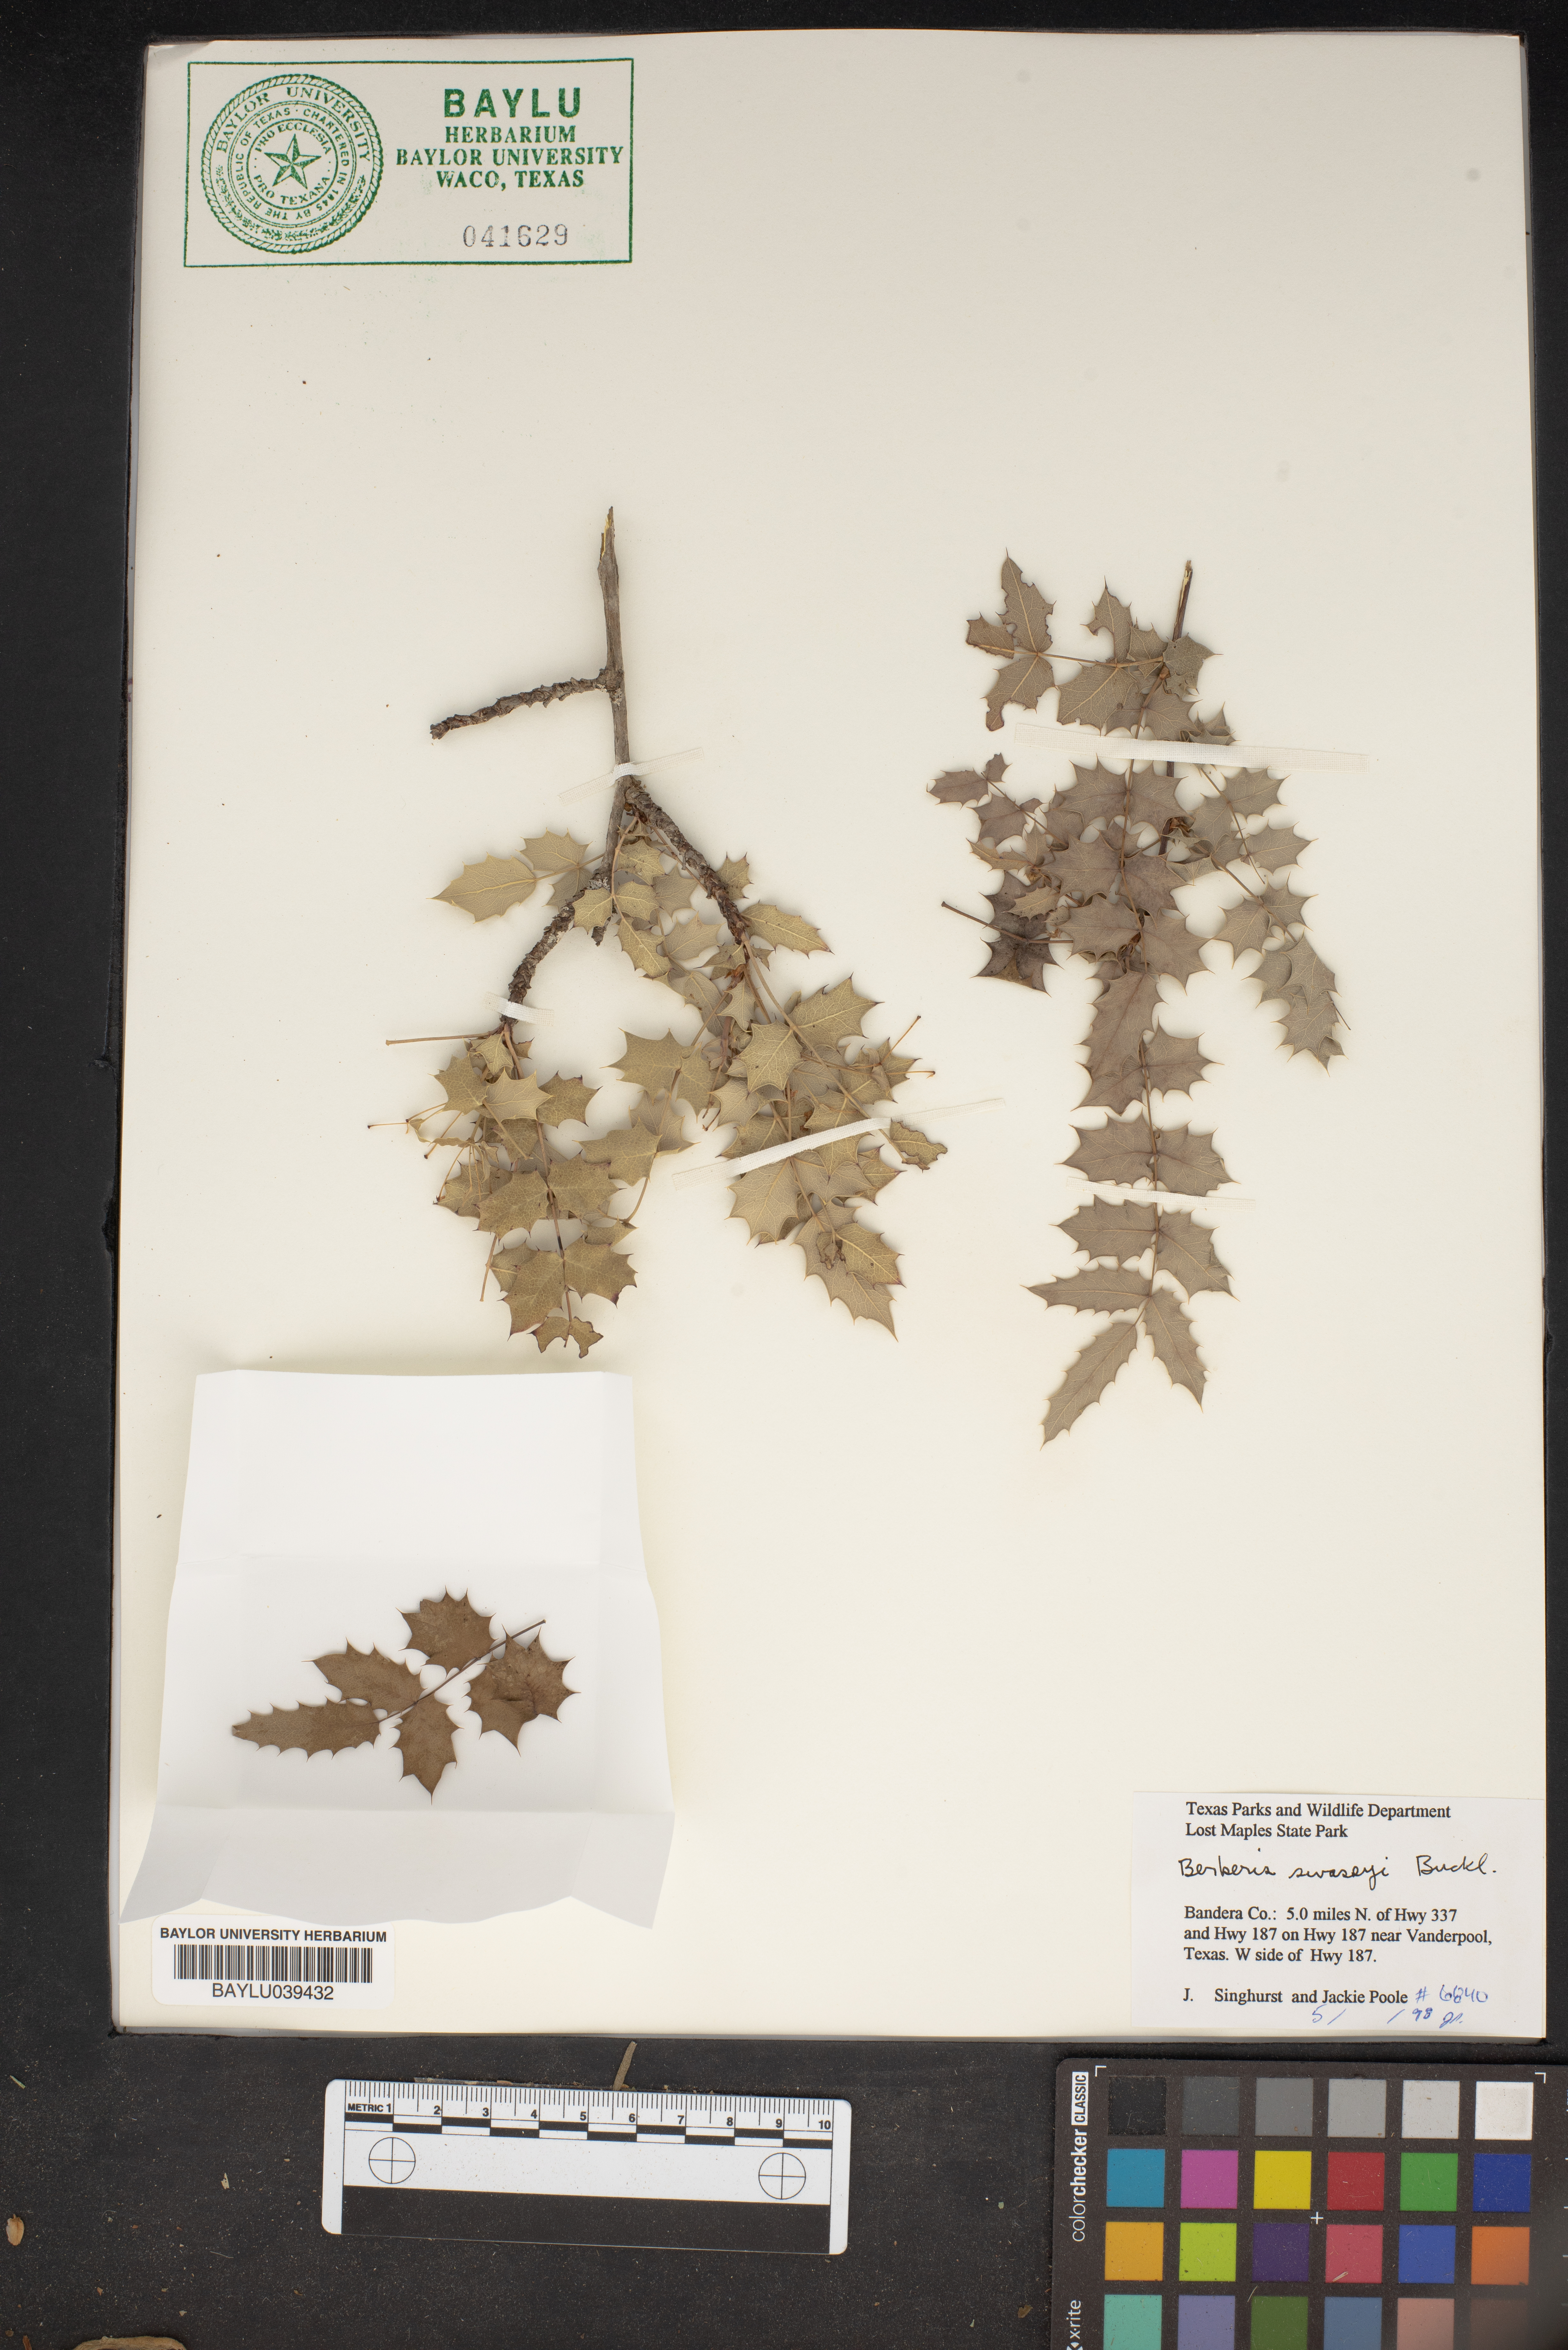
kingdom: Plantae
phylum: Tracheophyta
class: Magnoliopsida
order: Ranunculales
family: Berberidaceae
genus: Berberis
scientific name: Berberis swaseyi
